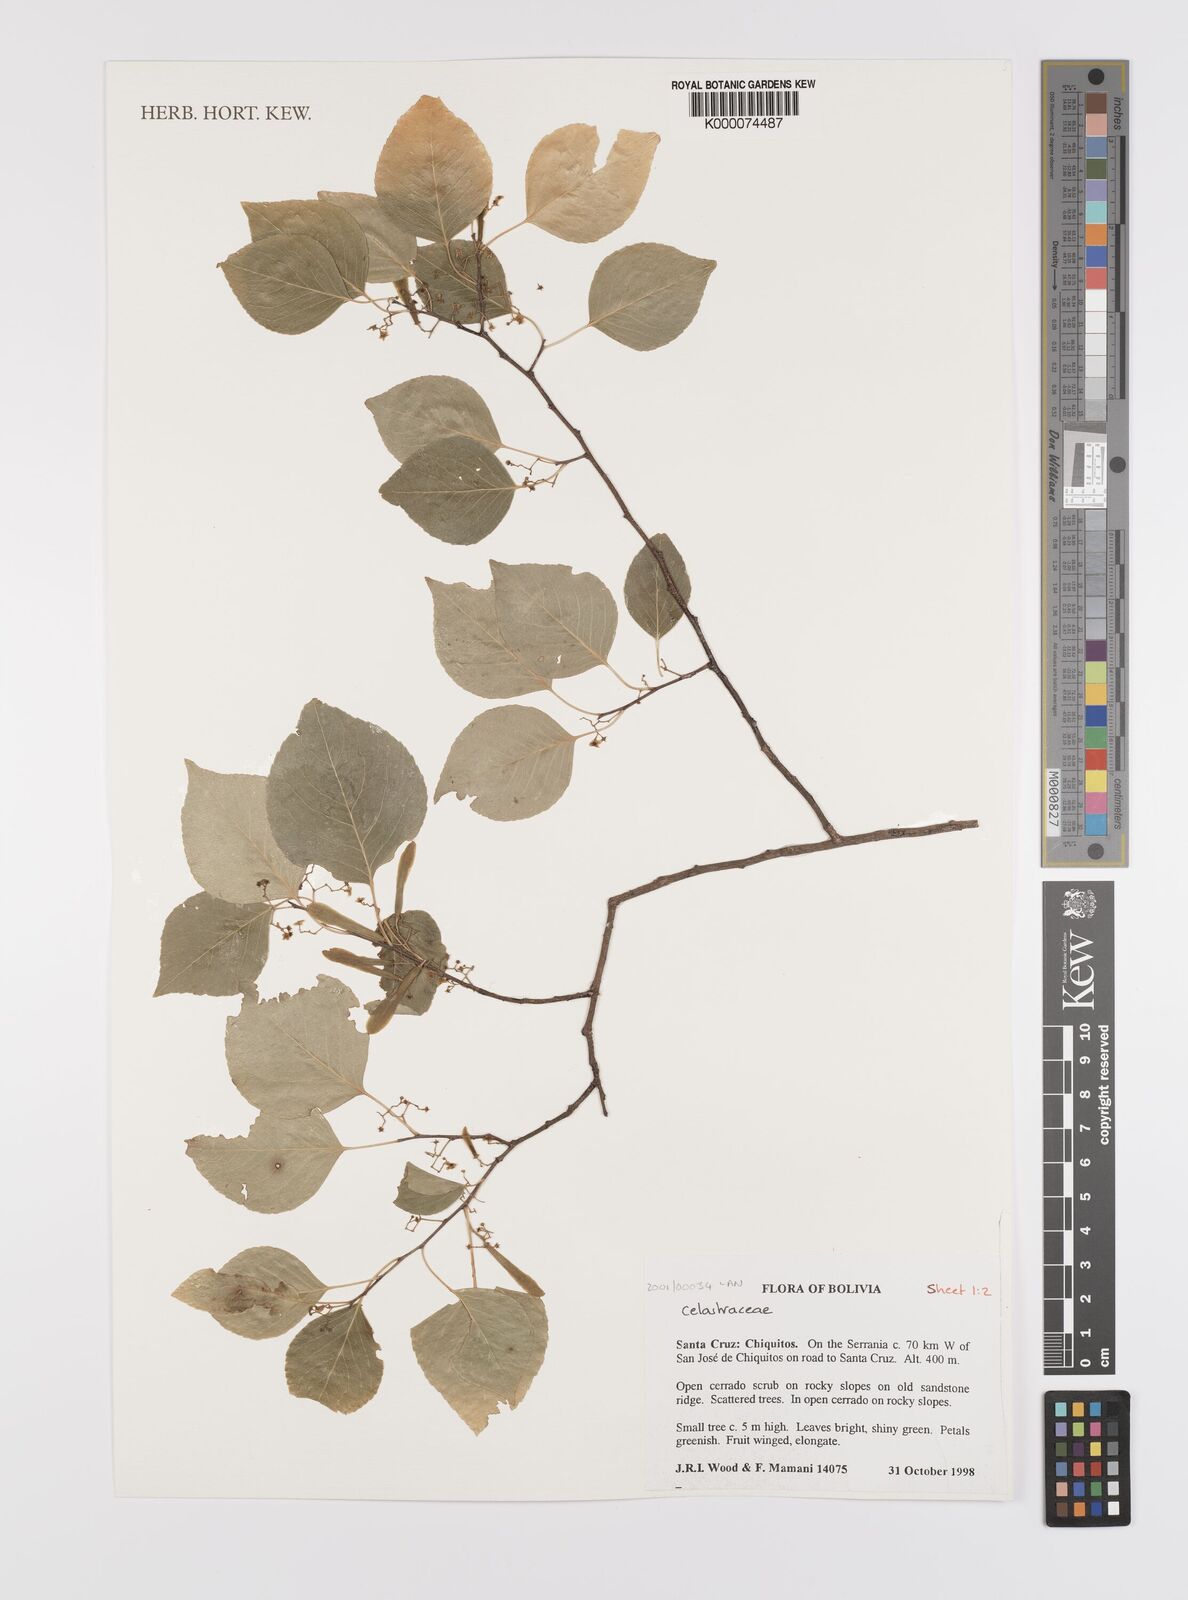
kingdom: Plantae
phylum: Tracheophyta
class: Magnoliopsida
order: Celastrales
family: Celastraceae
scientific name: Celastraceae
